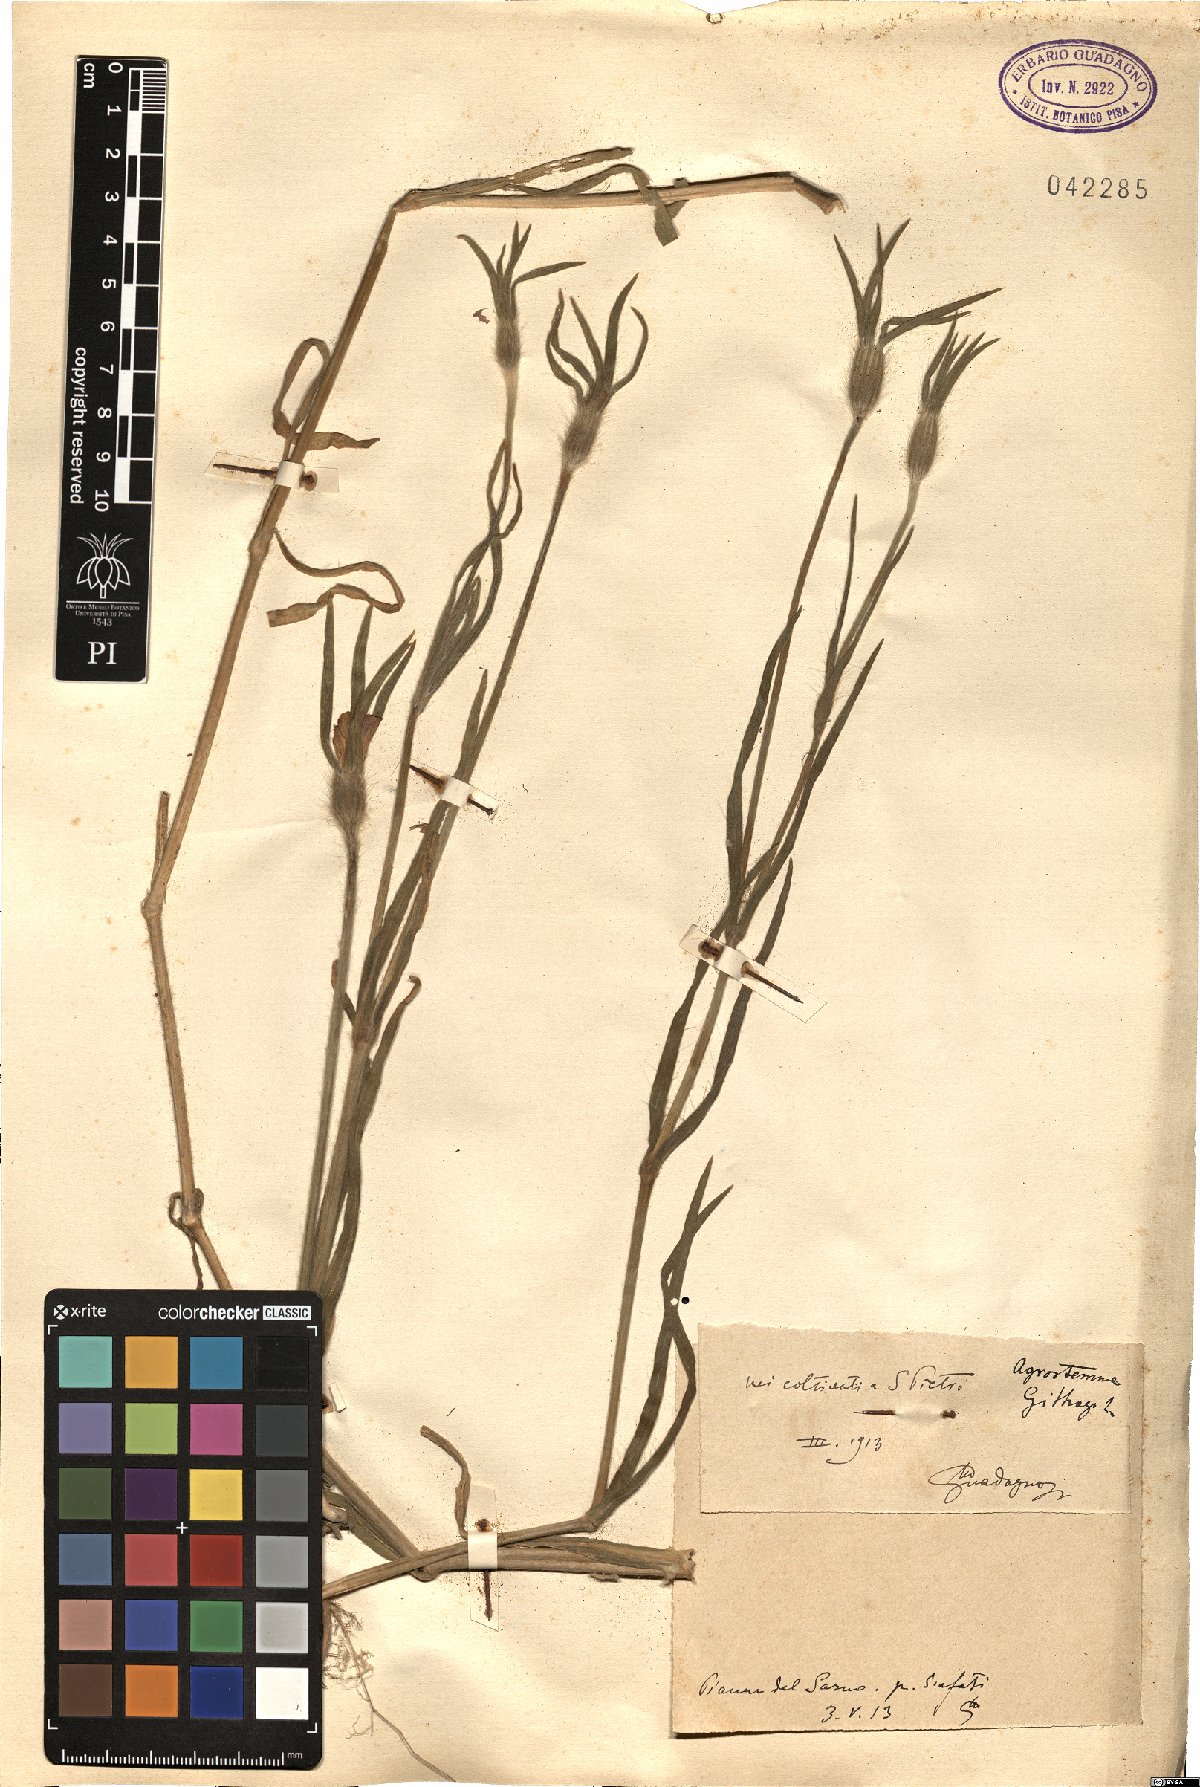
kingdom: Plantae
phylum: Tracheophyta
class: Magnoliopsida
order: Caryophyllales
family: Caryophyllaceae
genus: Agrostemma
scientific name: Agrostemma githago
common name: Common corncockle
